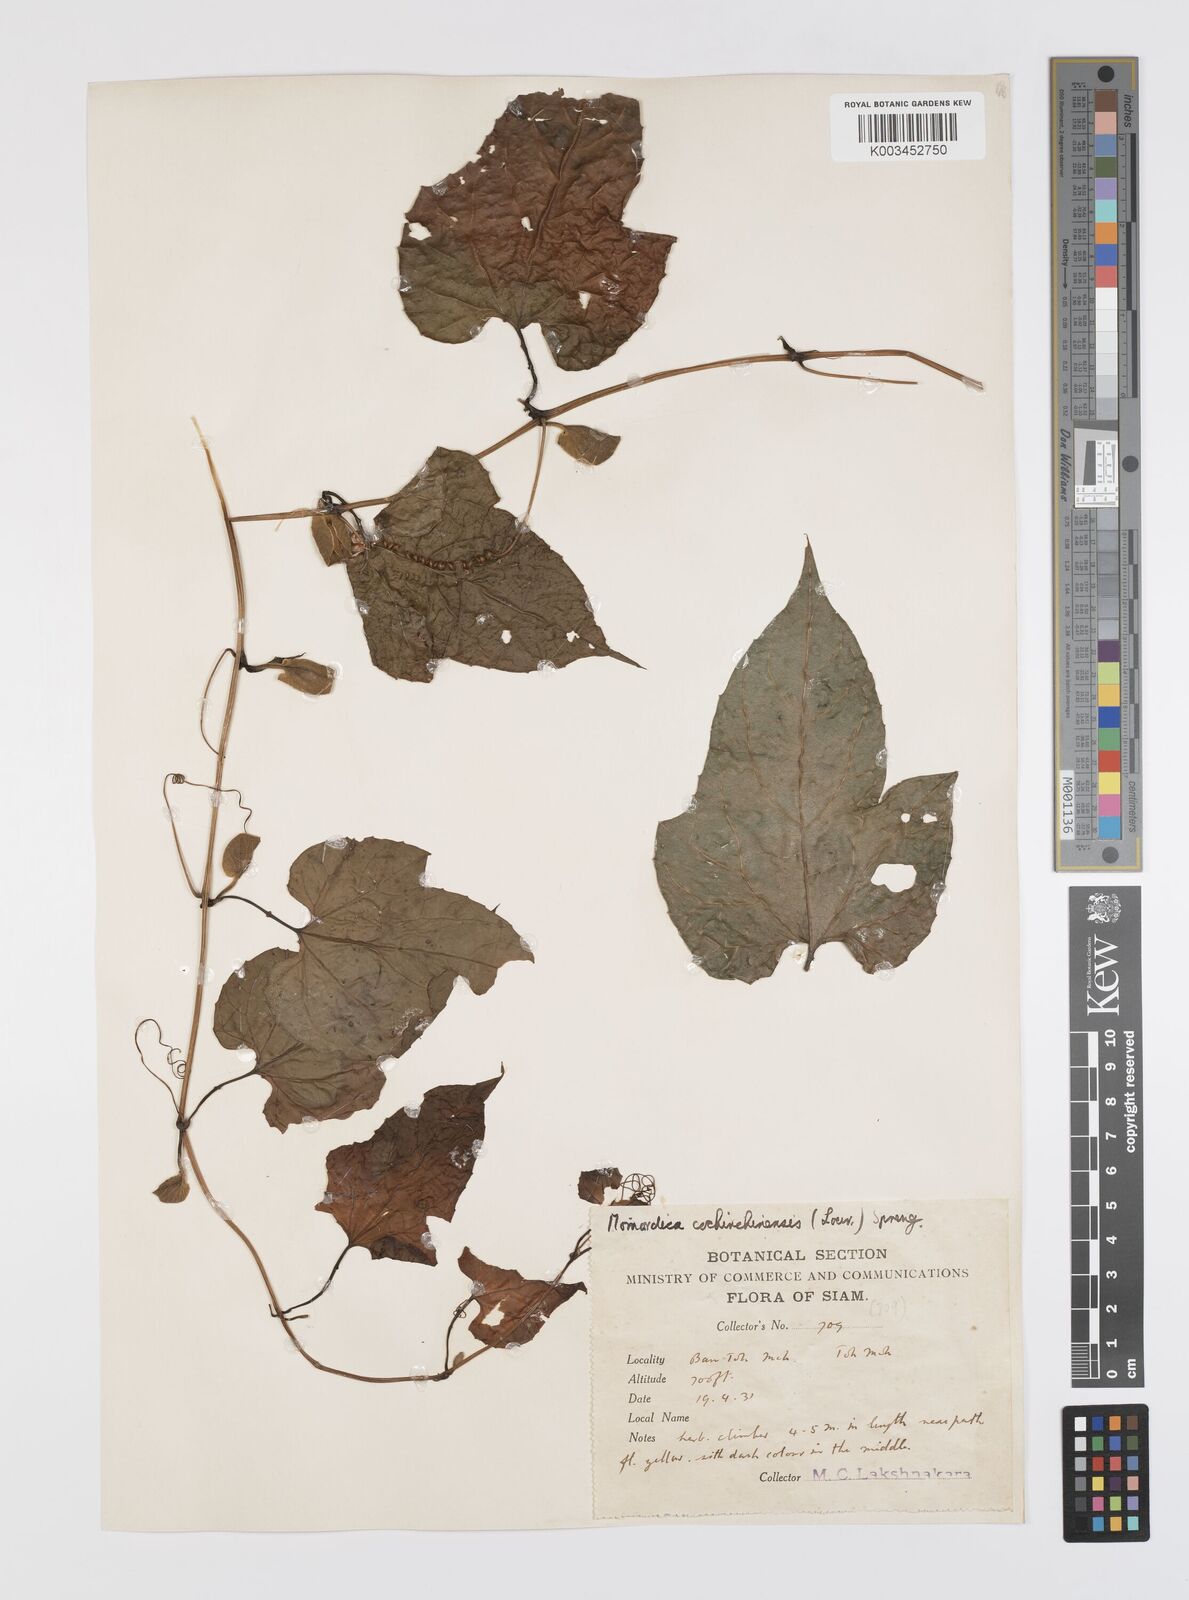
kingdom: Plantae
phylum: Tracheophyta
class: Magnoliopsida
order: Cucurbitales
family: Cucurbitaceae
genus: Momordica
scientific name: Momordica cochinchinensis
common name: Chinese bitter-cucumber
